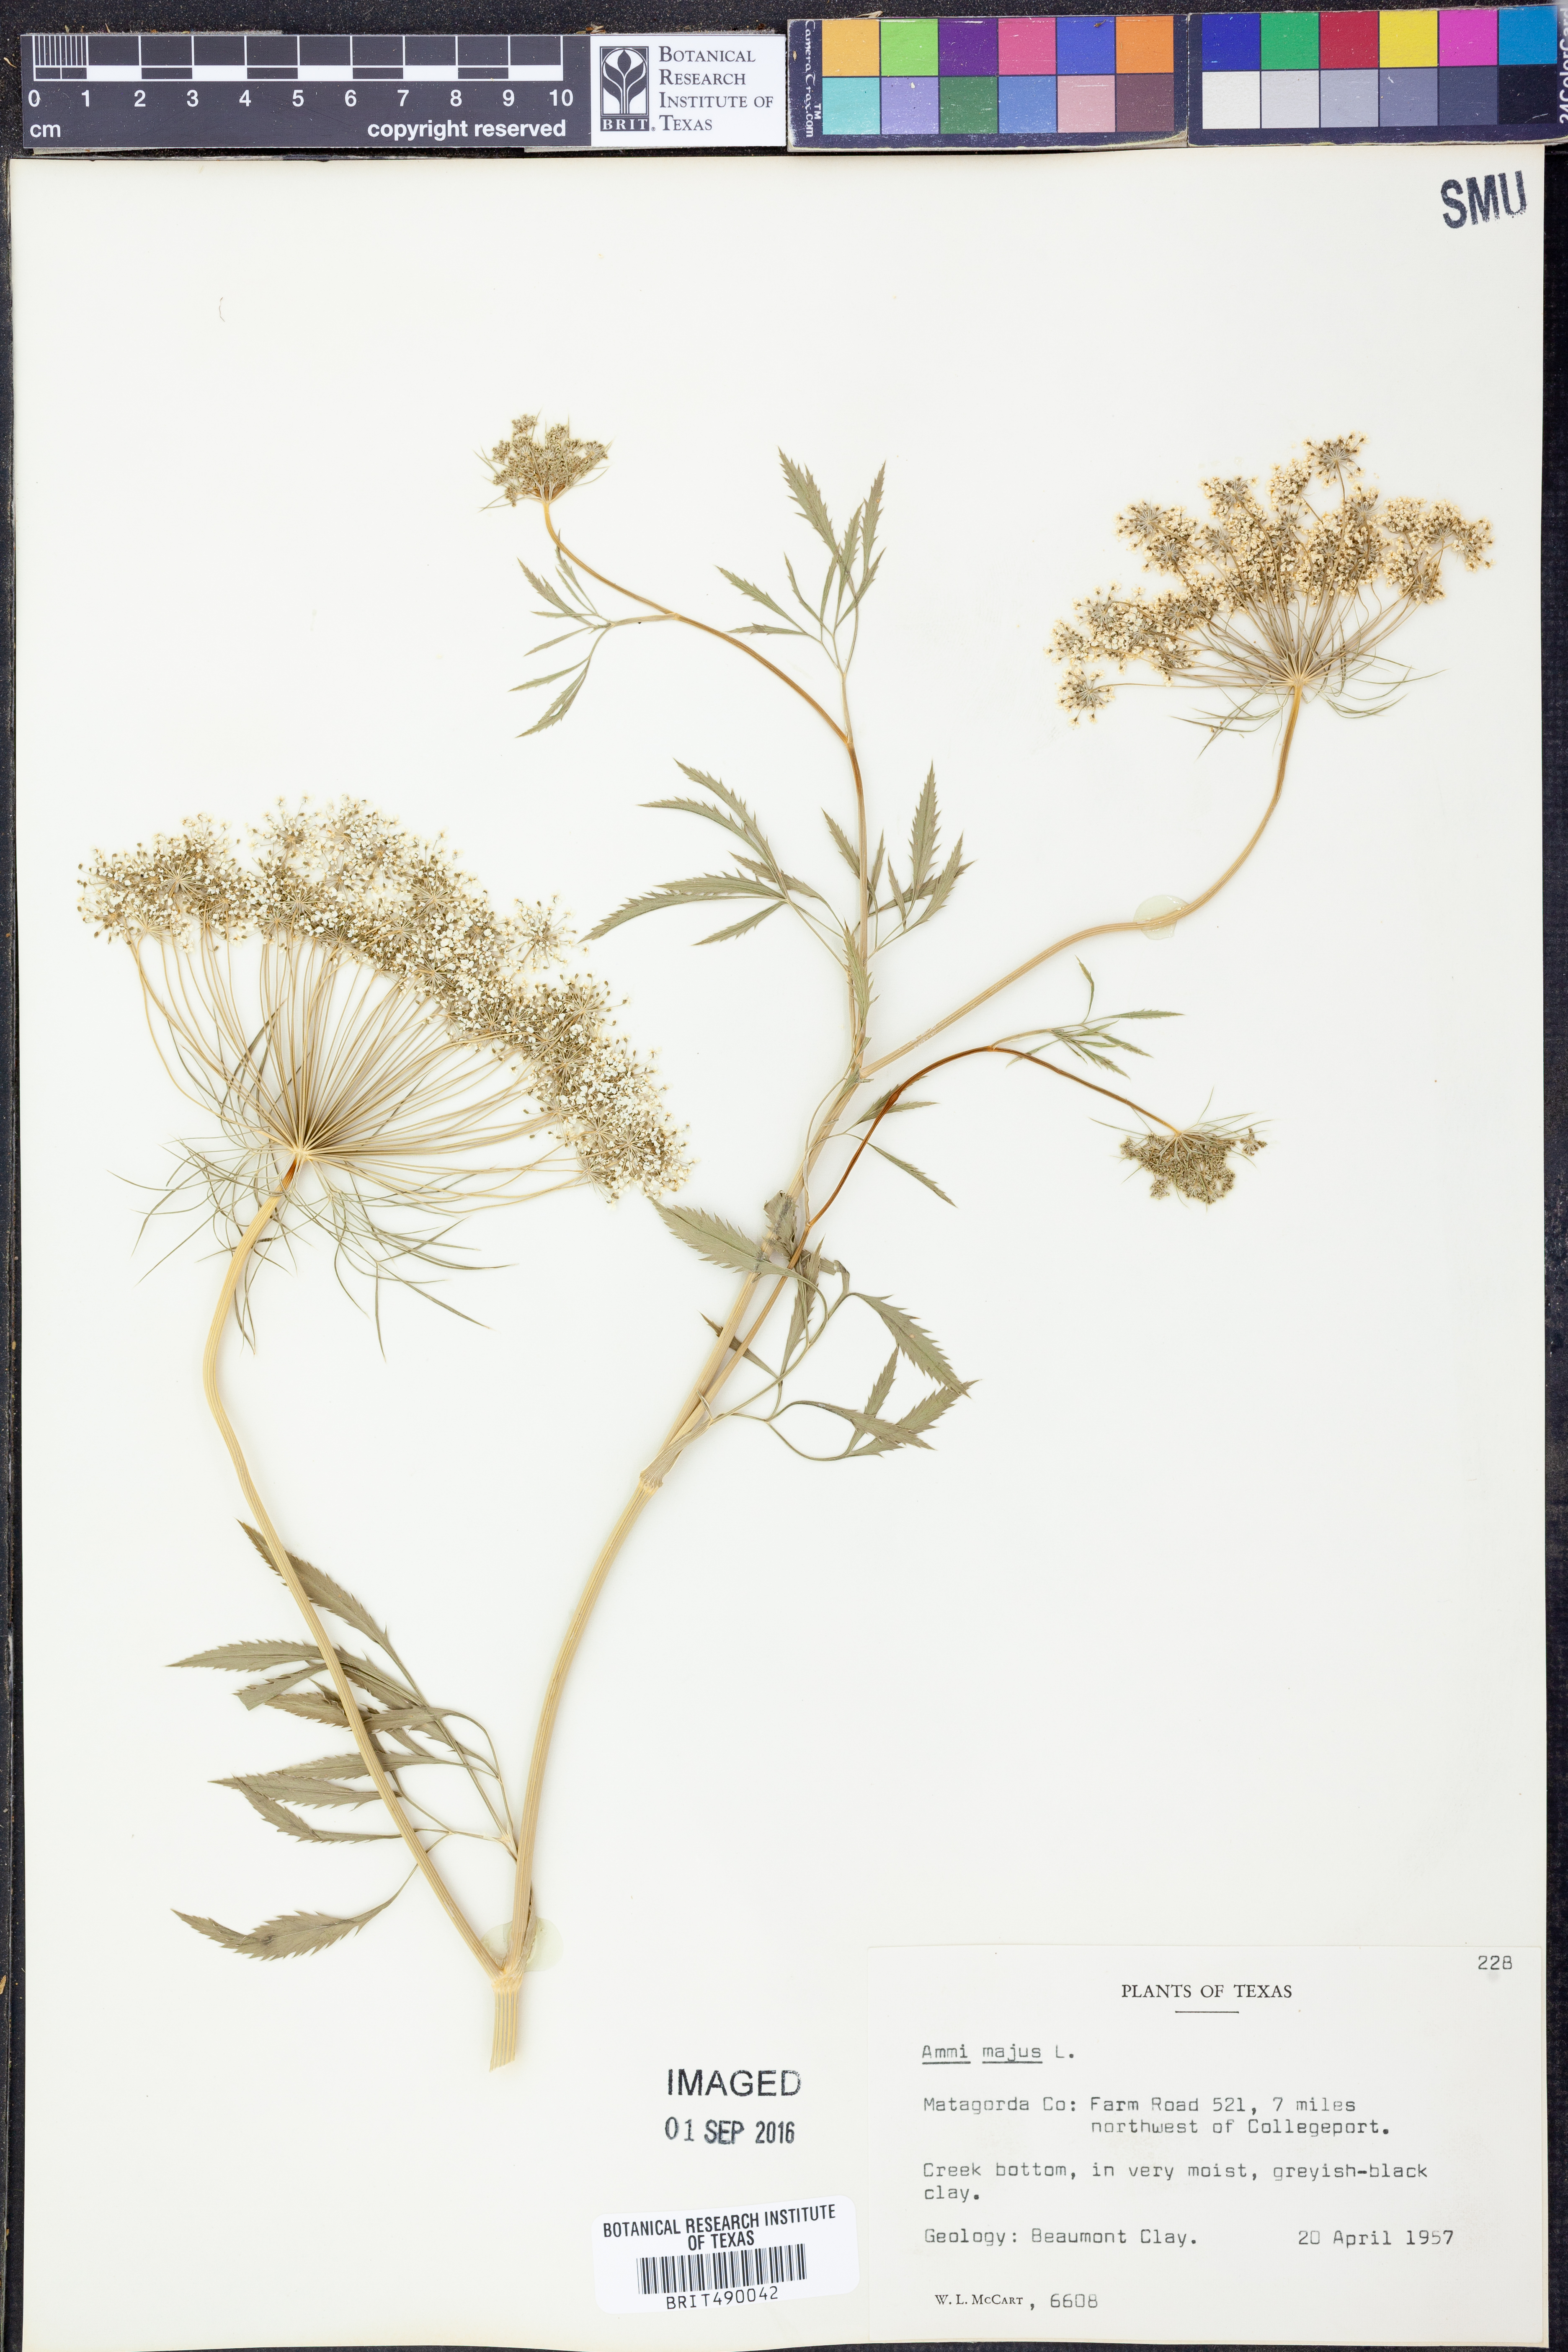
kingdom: Plantae
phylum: Tracheophyta
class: Magnoliopsida
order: Apiales
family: Apiaceae
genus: Ammi
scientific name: Ammi majus
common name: Bullwort
